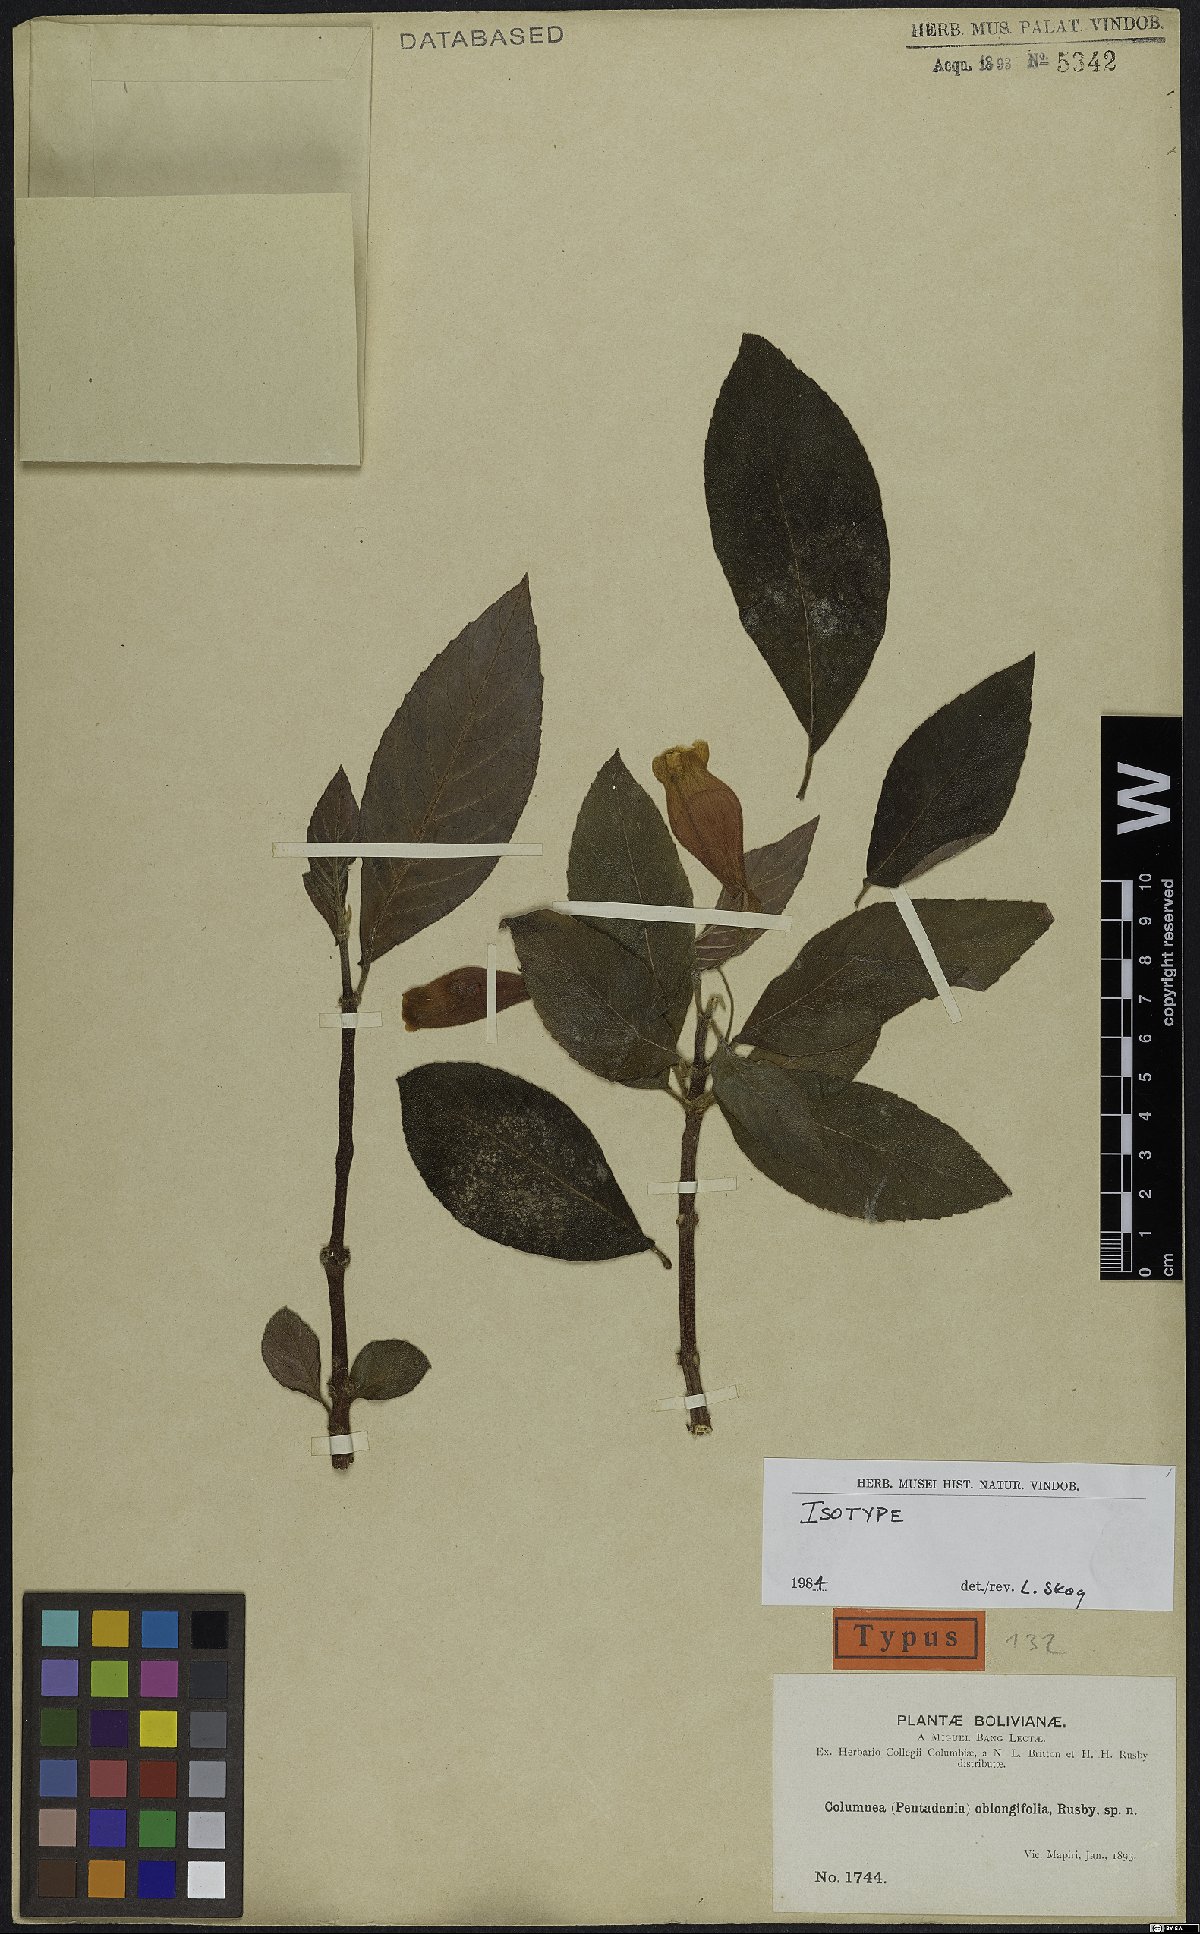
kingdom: Plantae
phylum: Tracheophyta
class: Magnoliopsida
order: Lamiales
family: Gesneriaceae
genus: Columnea
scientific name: Columnea oblongifolia
